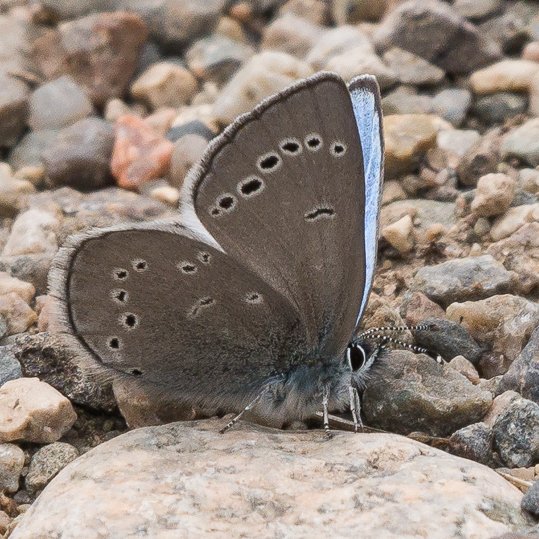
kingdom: Animalia
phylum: Arthropoda
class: Insecta
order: Lepidoptera
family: Lycaenidae
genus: Glaucopsyche
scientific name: Glaucopsyche lygdamus
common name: Silvery Blue
